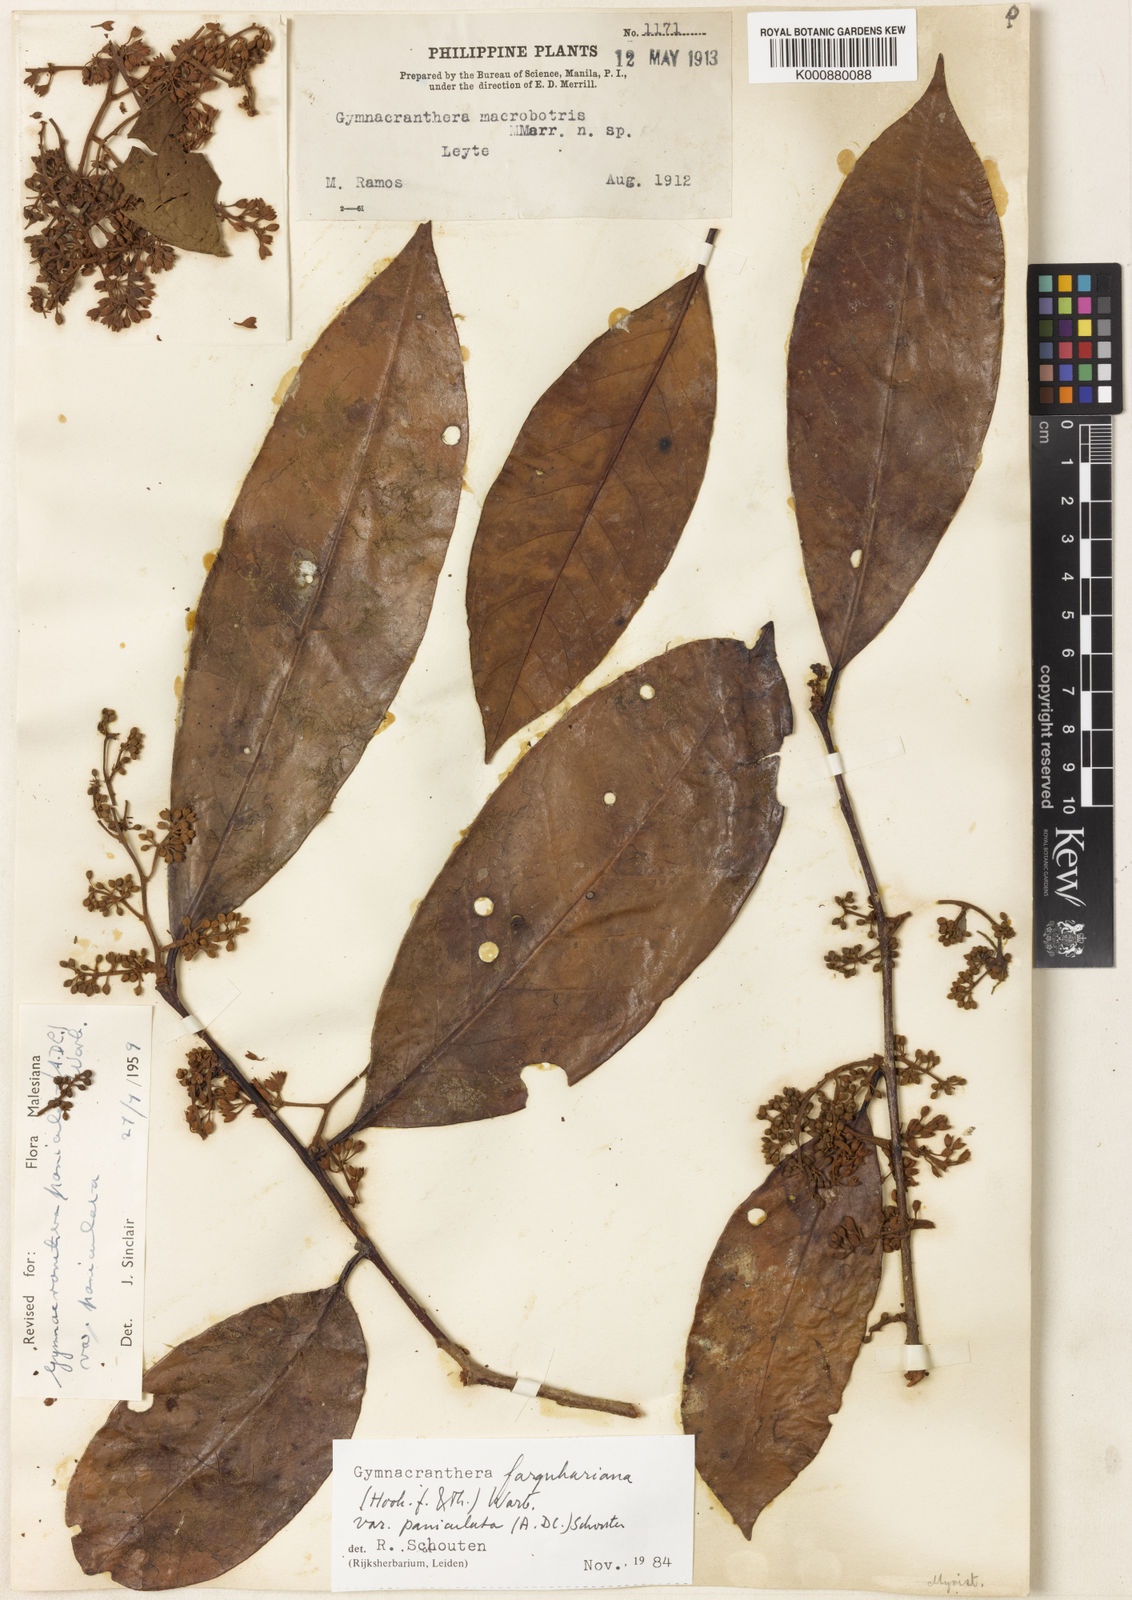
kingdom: Plantae
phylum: Tracheophyta
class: Magnoliopsida
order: Magnoliales
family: Myristicaceae
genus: Gymnacranthera
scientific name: Gymnacranthera farquhariana
